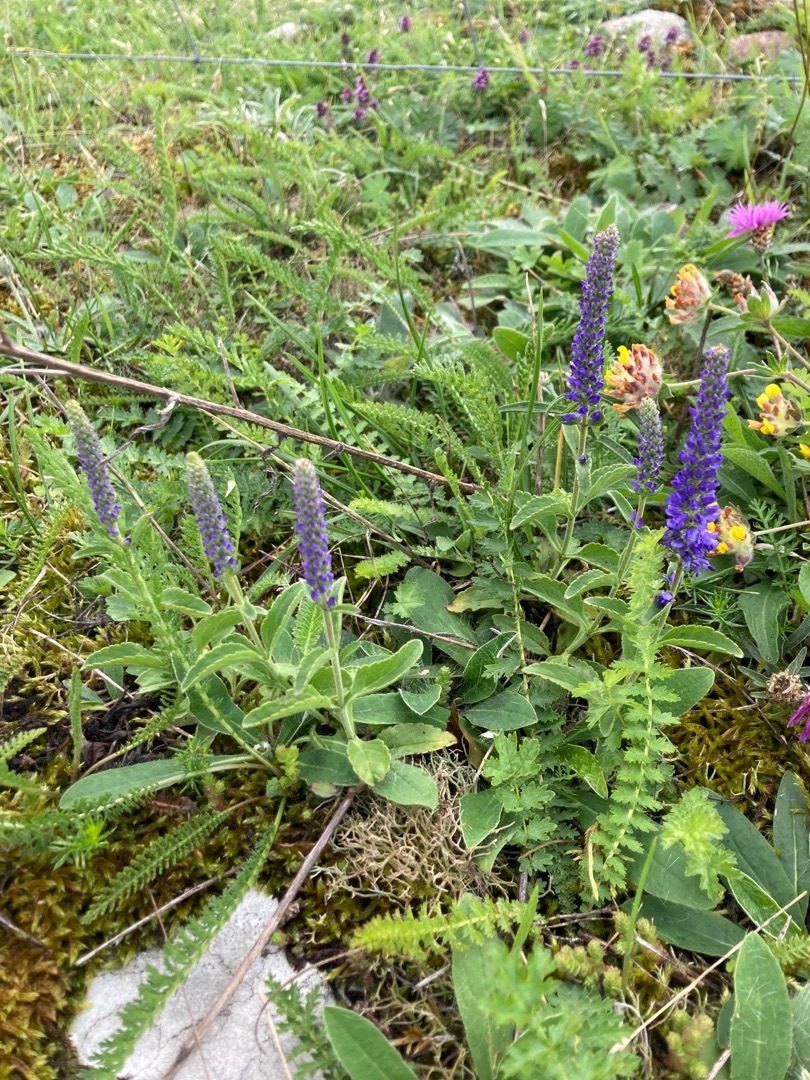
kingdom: Plantae
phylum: Tracheophyta
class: Magnoliopsida
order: Lamiales
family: Plantaginaceae
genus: Veronica
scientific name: Veronica spicata
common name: Aks-ærenpris
